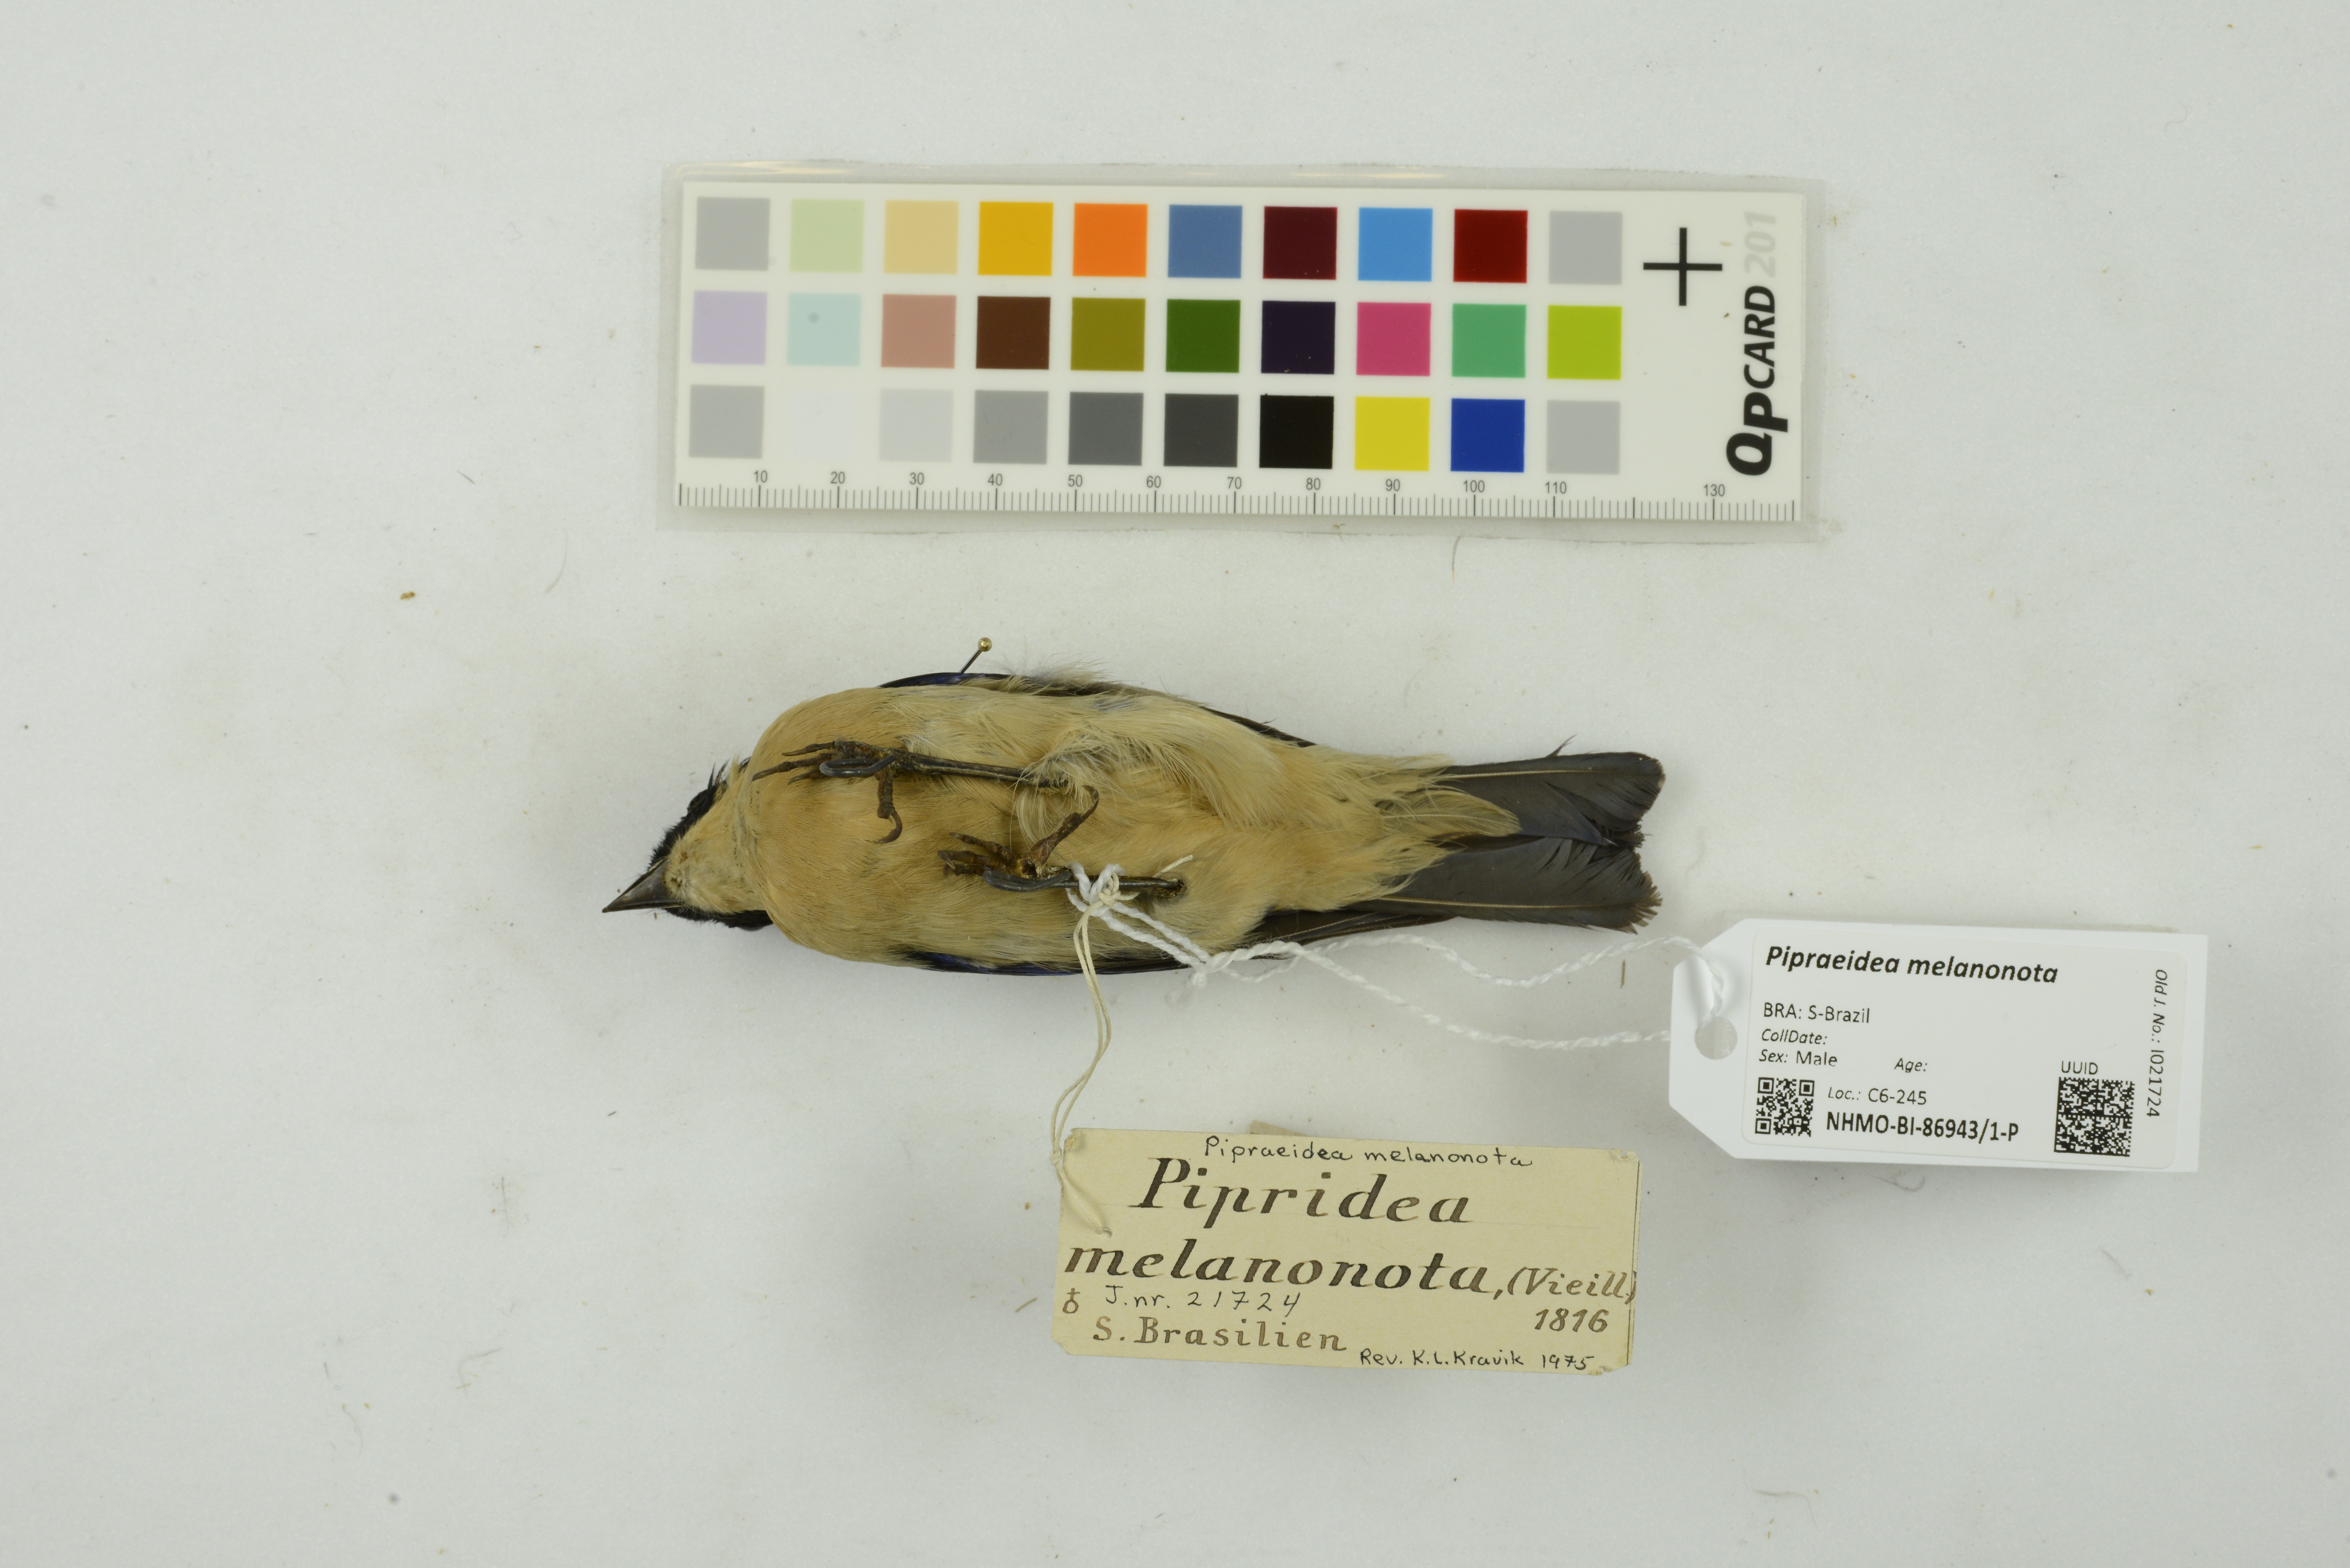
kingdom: Animalia
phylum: Chordata
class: Aves
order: Passeriformes
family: Thraupidae
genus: Pipraeidea
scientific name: Pipraeidea melanonota
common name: Fawn-breasted tanager
